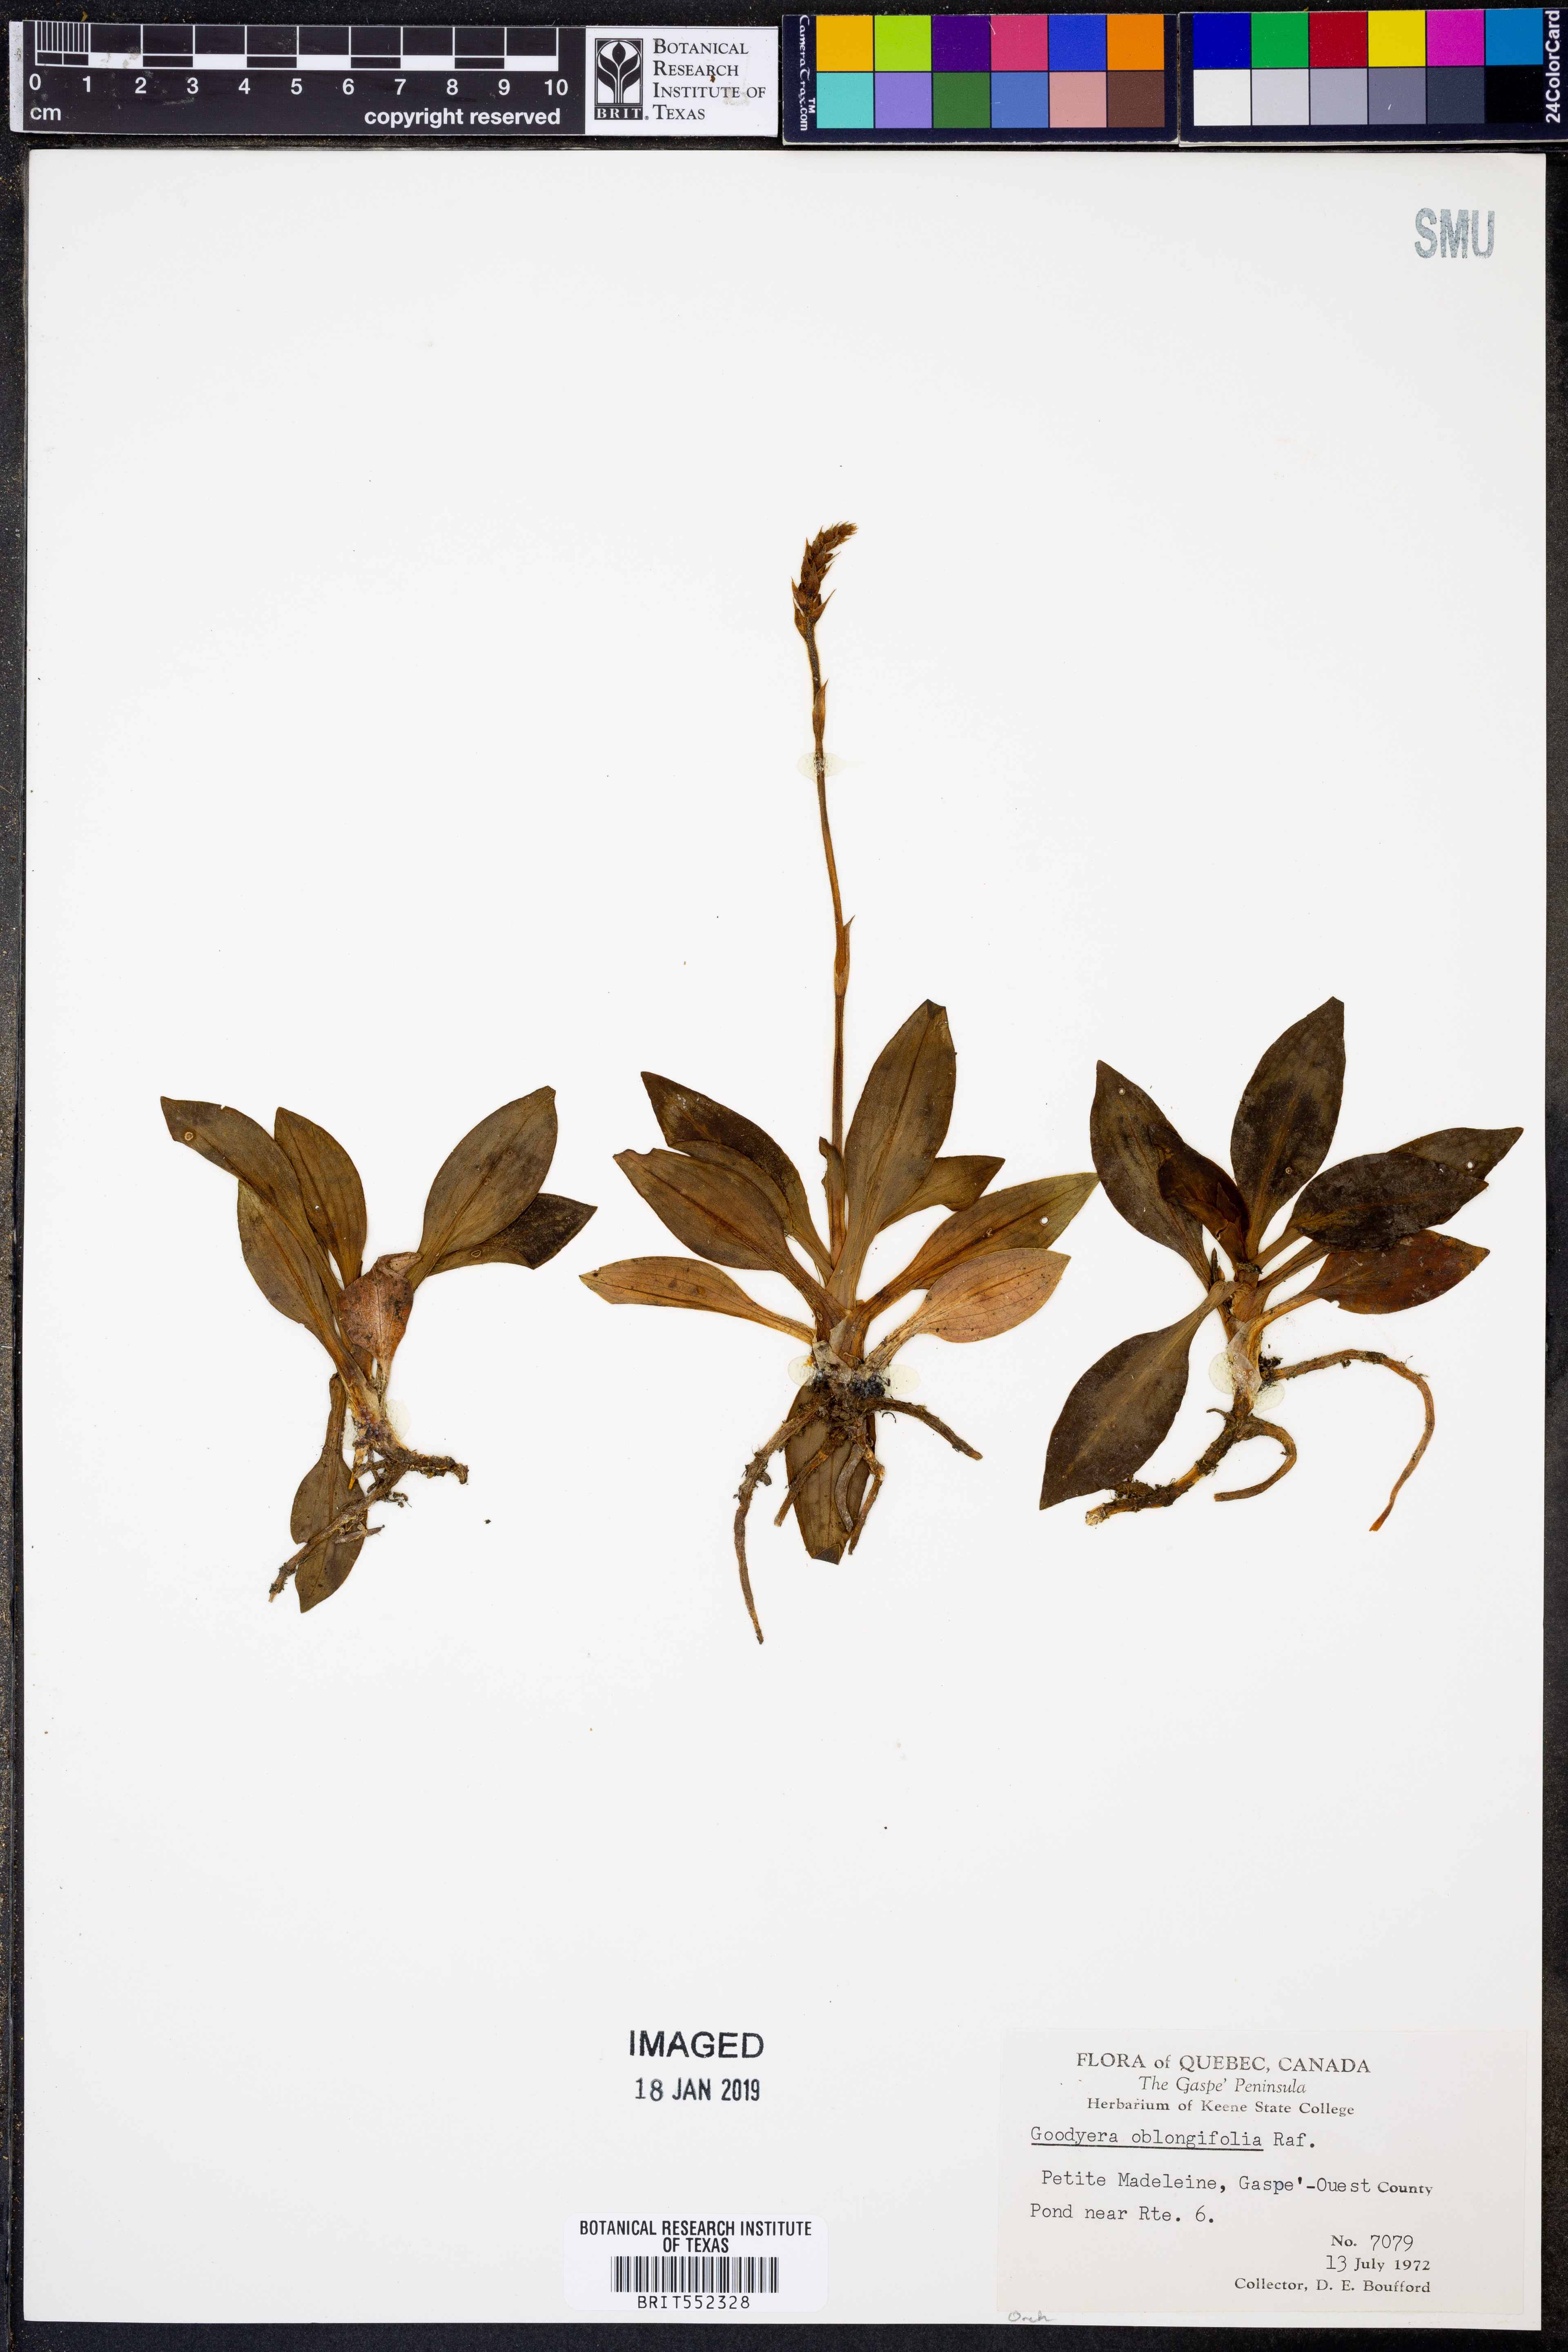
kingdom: Plantae
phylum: Tracheophyta
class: Liliopsida
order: Asparagales
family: Orchidaceae
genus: Goodyera
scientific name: Goodyera oblongifolia
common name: Giant rattlesnake-plantain
